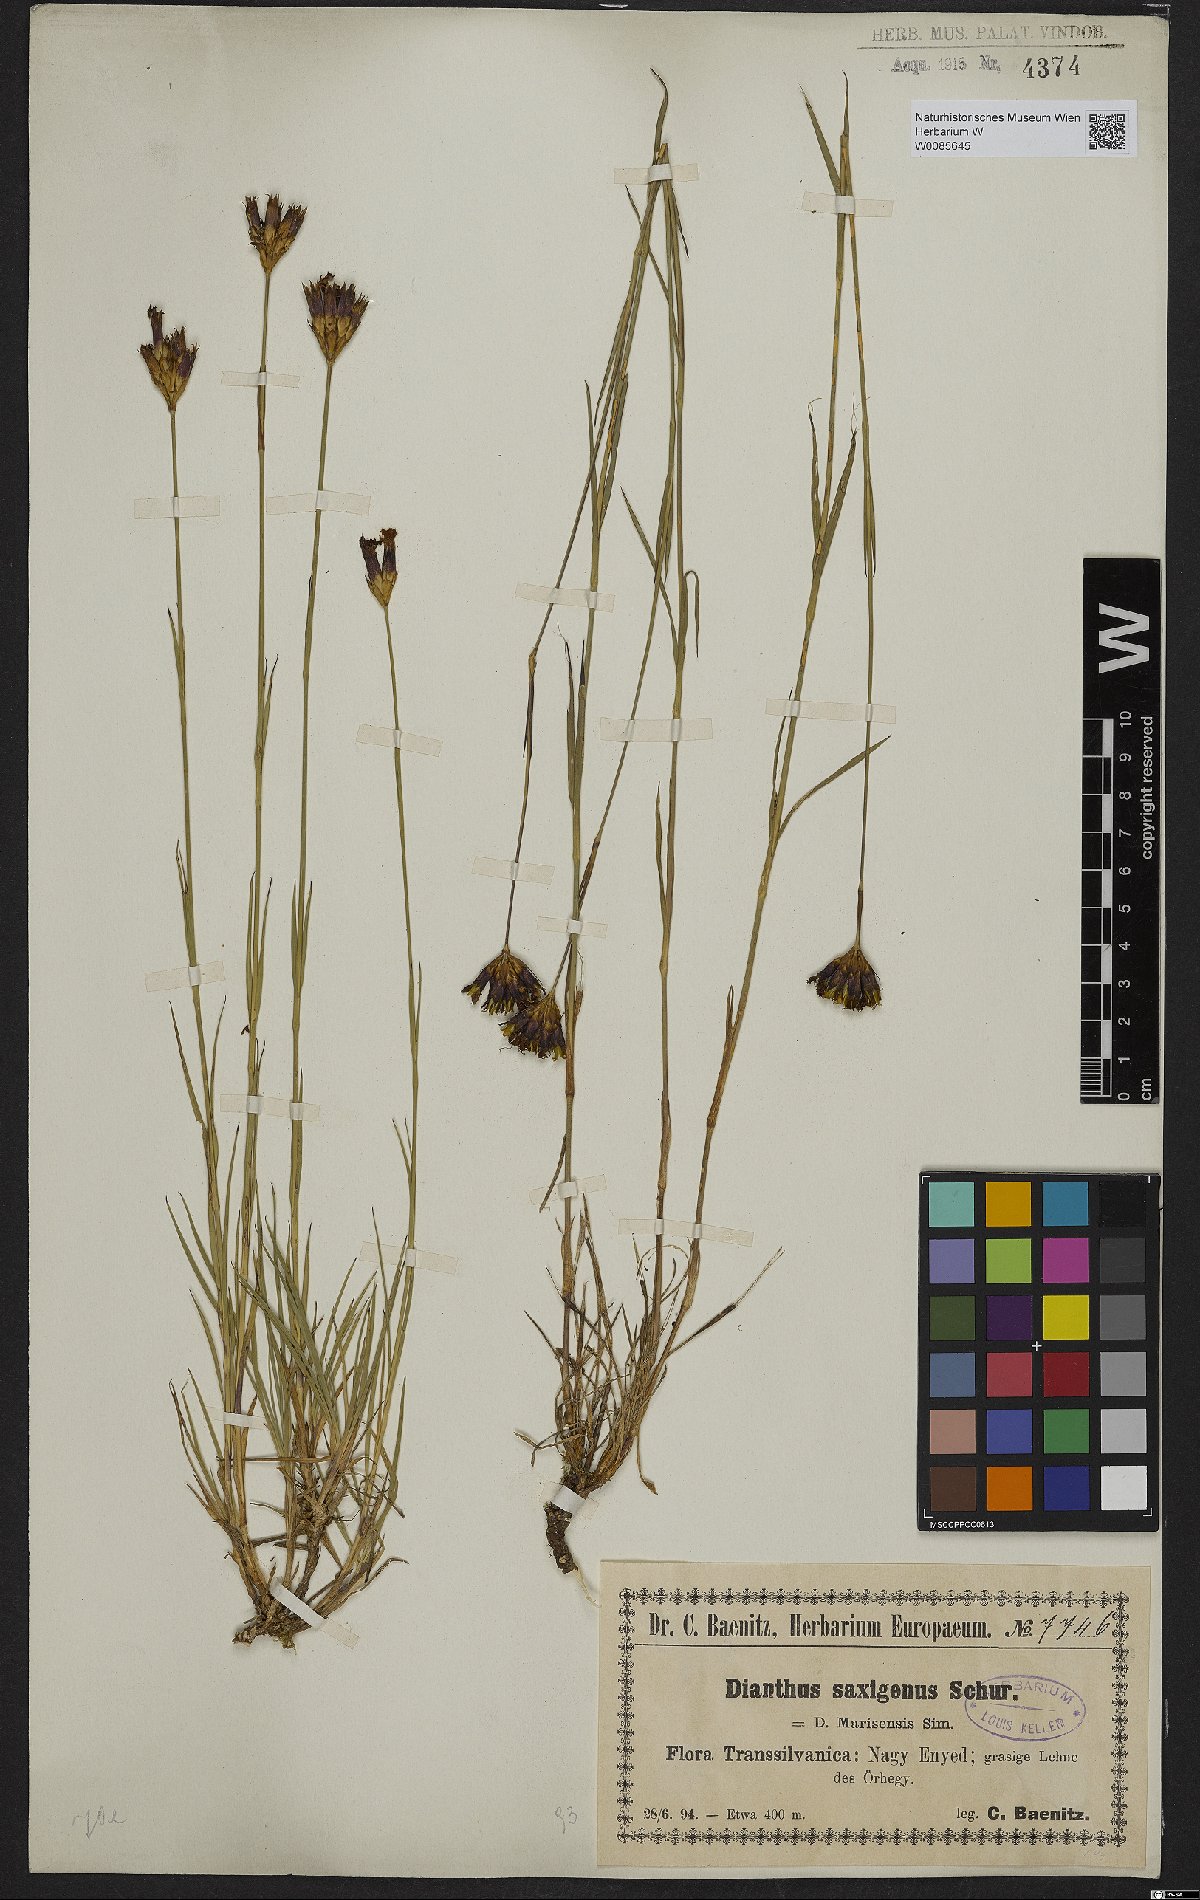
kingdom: Plantae
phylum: Tracheophyta
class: Magnoliopsida
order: Caryophyllales
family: Caryophyllaceae
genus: Dianthus
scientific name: Dianthus
